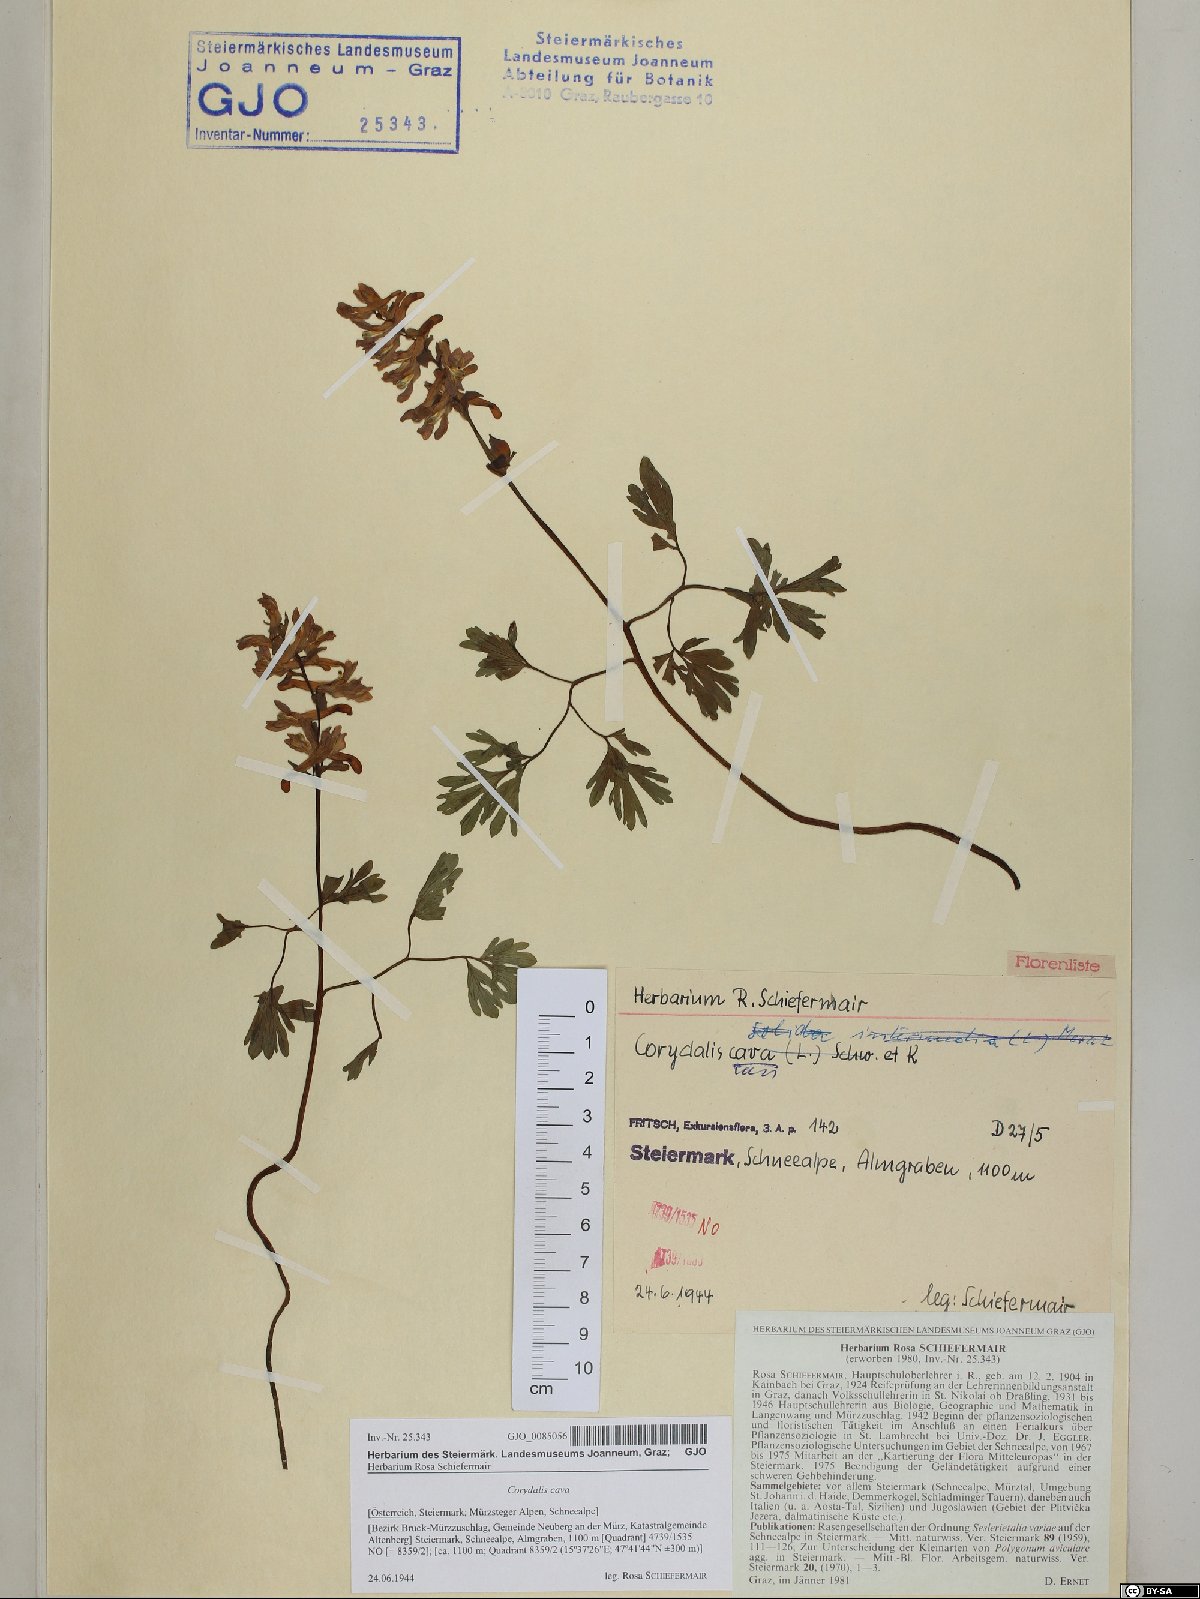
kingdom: Plantae
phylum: Tracheophyta
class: Magnoliopsida
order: Ranunculales
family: Papaveraceae
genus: Corydalis
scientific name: Corydalis cava
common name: Hollowroot
